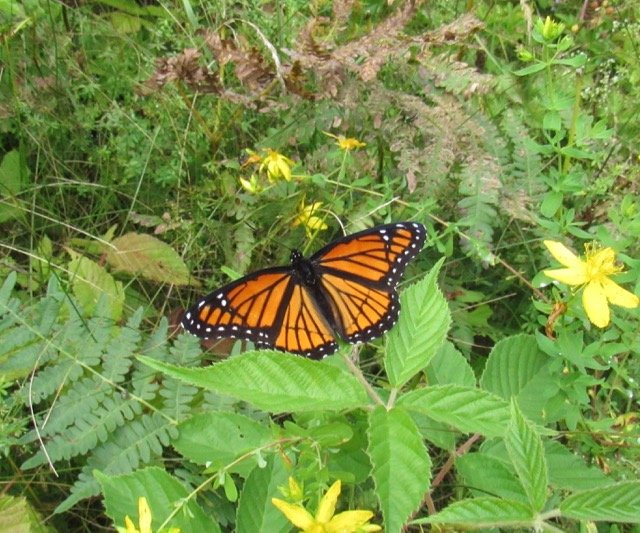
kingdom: Animalia
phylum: Arthropoda
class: Insecta
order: Lepidoptera
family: Nymphalidae
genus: Limenitis
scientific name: Limenitis archippus
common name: Viceroy
